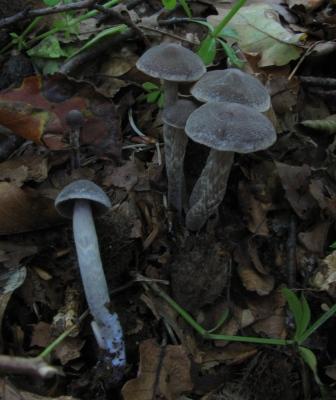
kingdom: Fungi
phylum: Basidiomycota
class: Agaricomycetes
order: Agaricales
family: Cortinariaceae
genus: Cortinarius
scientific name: Cortinarius
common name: pelargonie-slørhat
